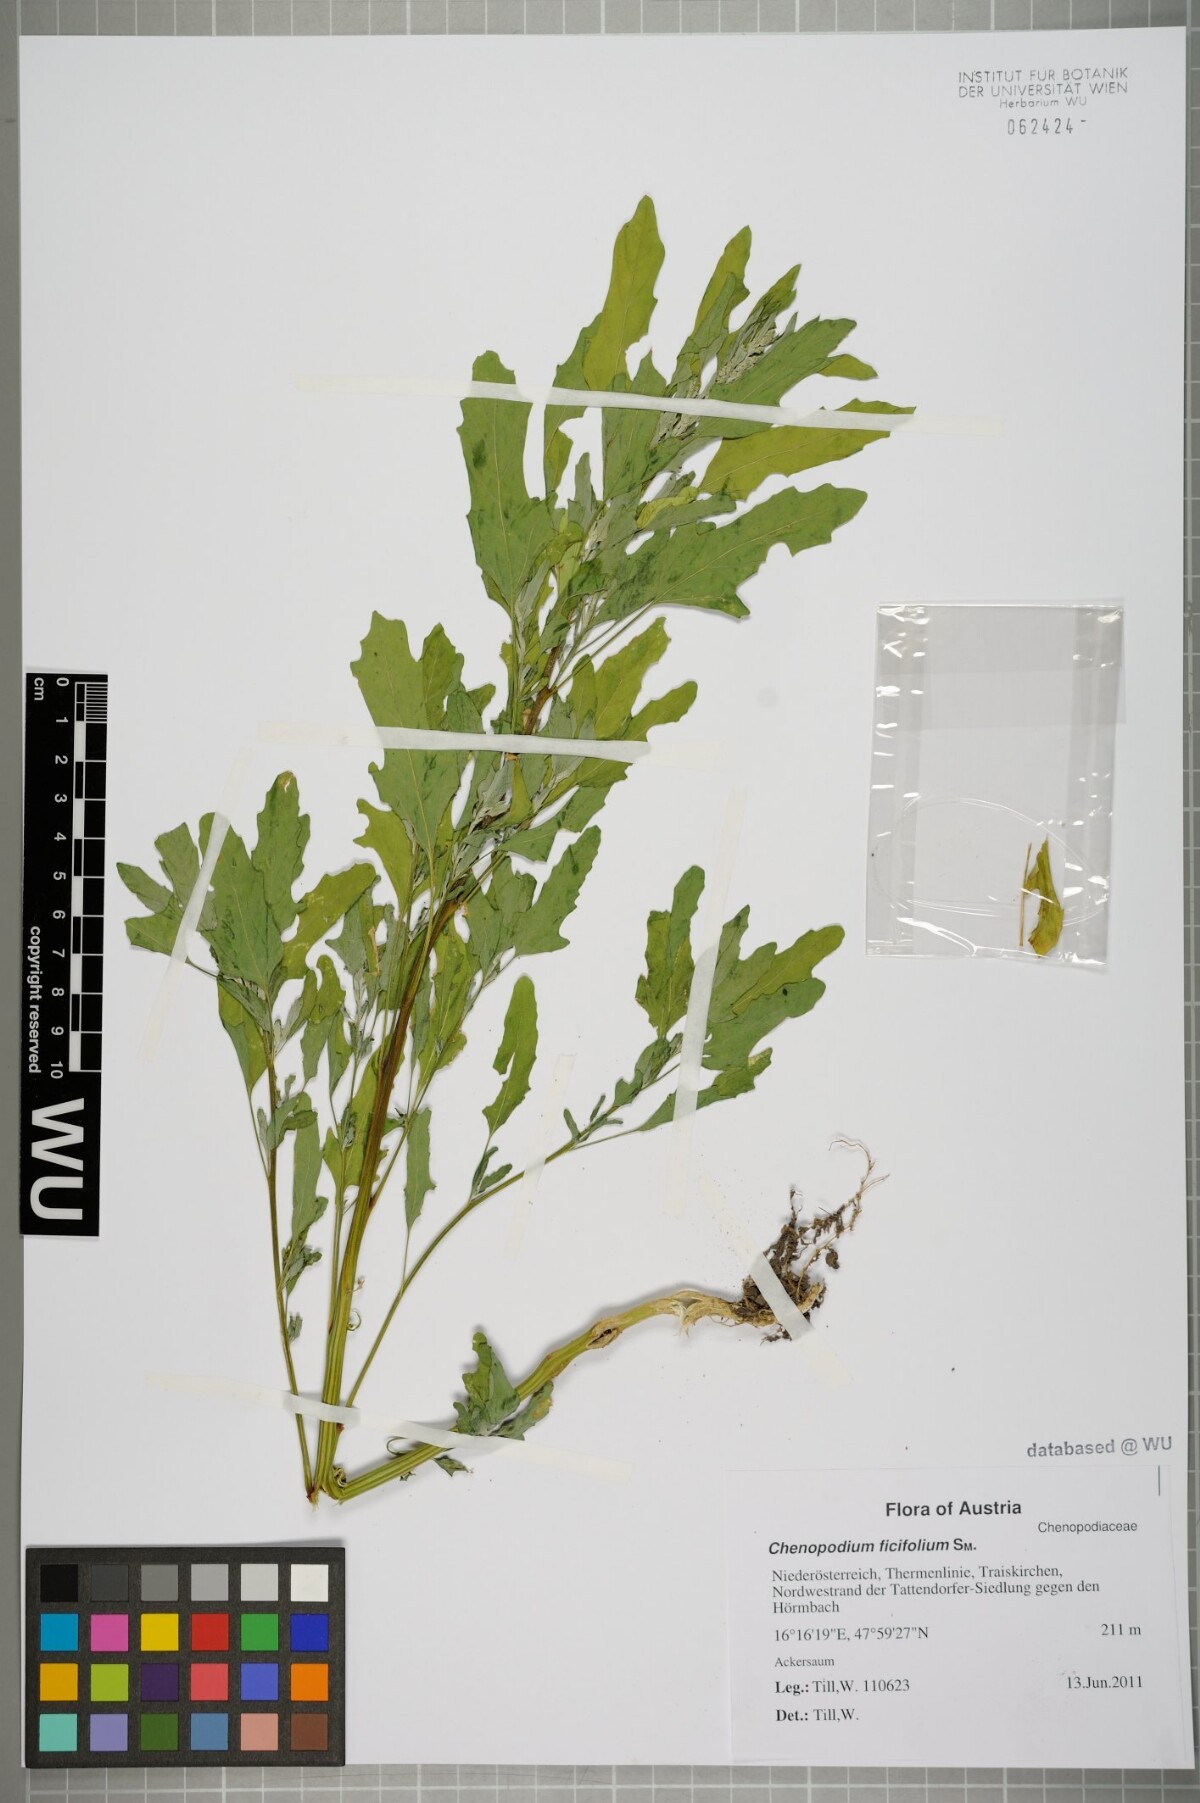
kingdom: Plantae
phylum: Tracheophyta
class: Magnoliopsida
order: Caryophyllales
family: Amaranthaceae
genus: Chenopodium
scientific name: Chenopodium ficifolium
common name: Fig-leaved goosefoot
